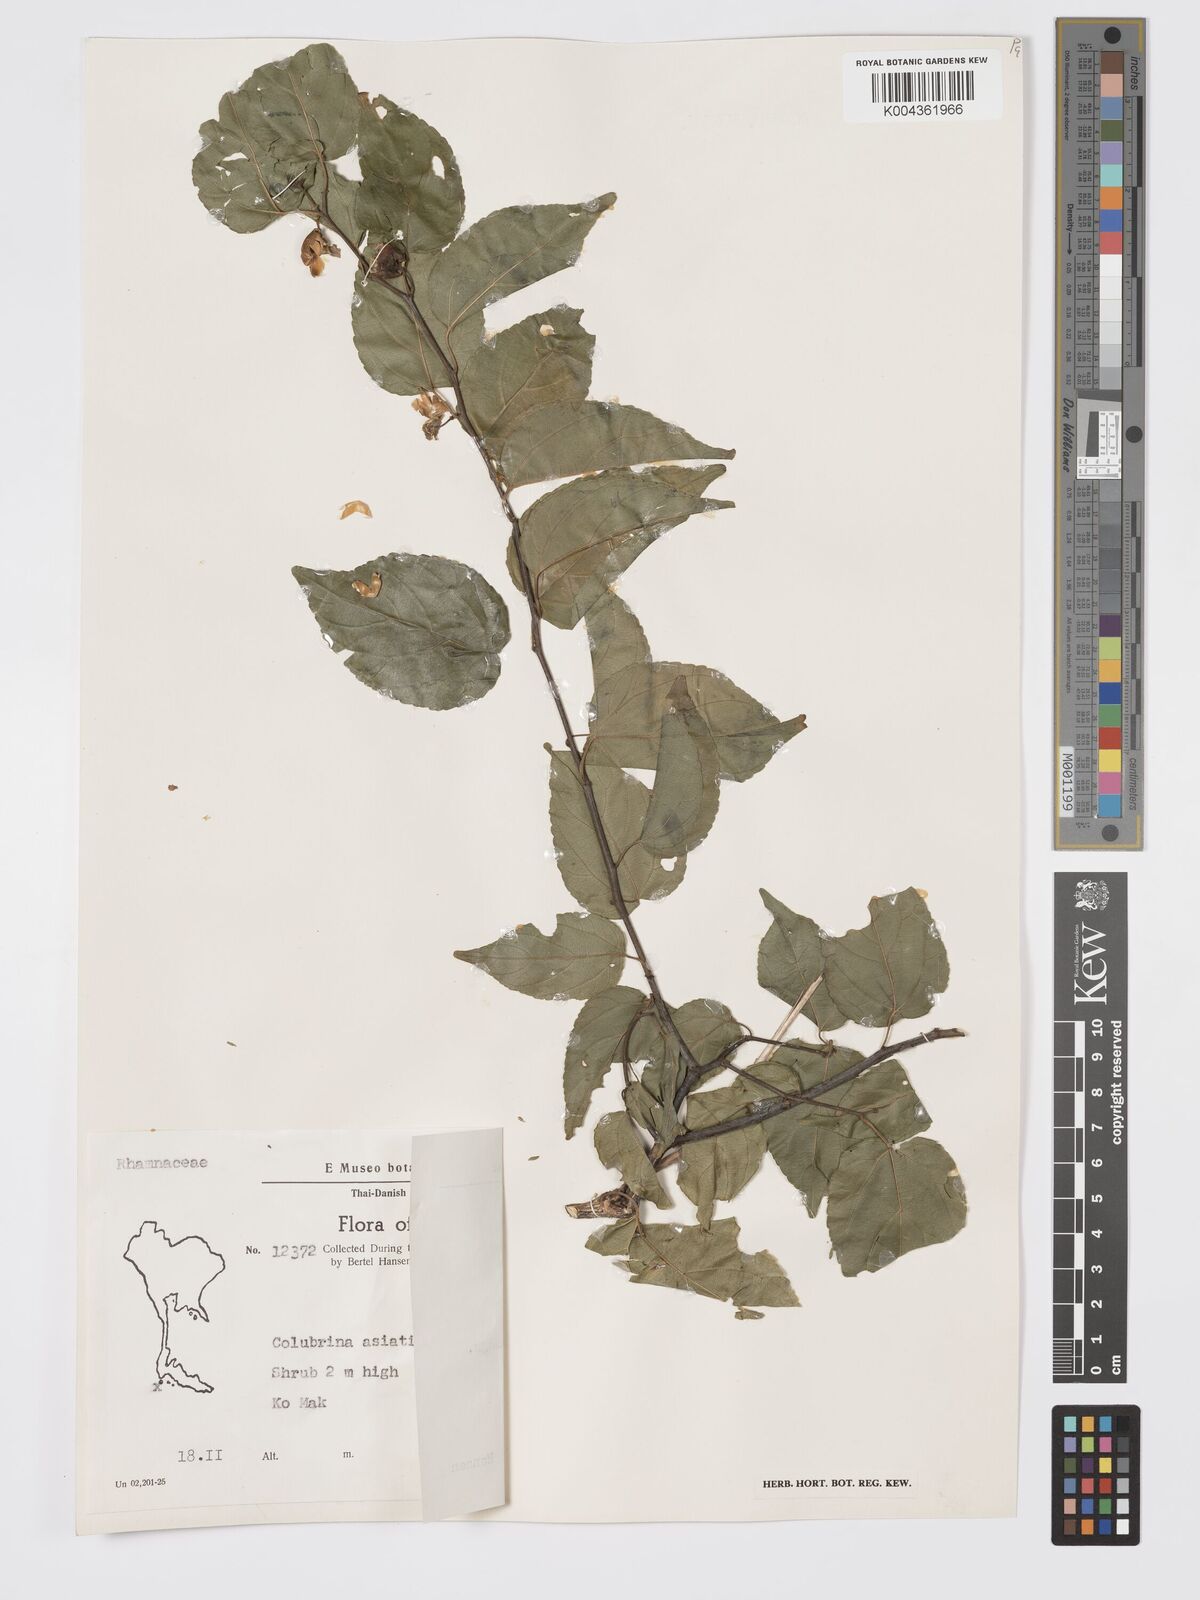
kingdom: Plantae
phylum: Tracheophyta
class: Magnoliopsida
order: Rosales
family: Rhamnaceae
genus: Colubrina
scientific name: Colubrina asiatica
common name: Asian nakedwood
